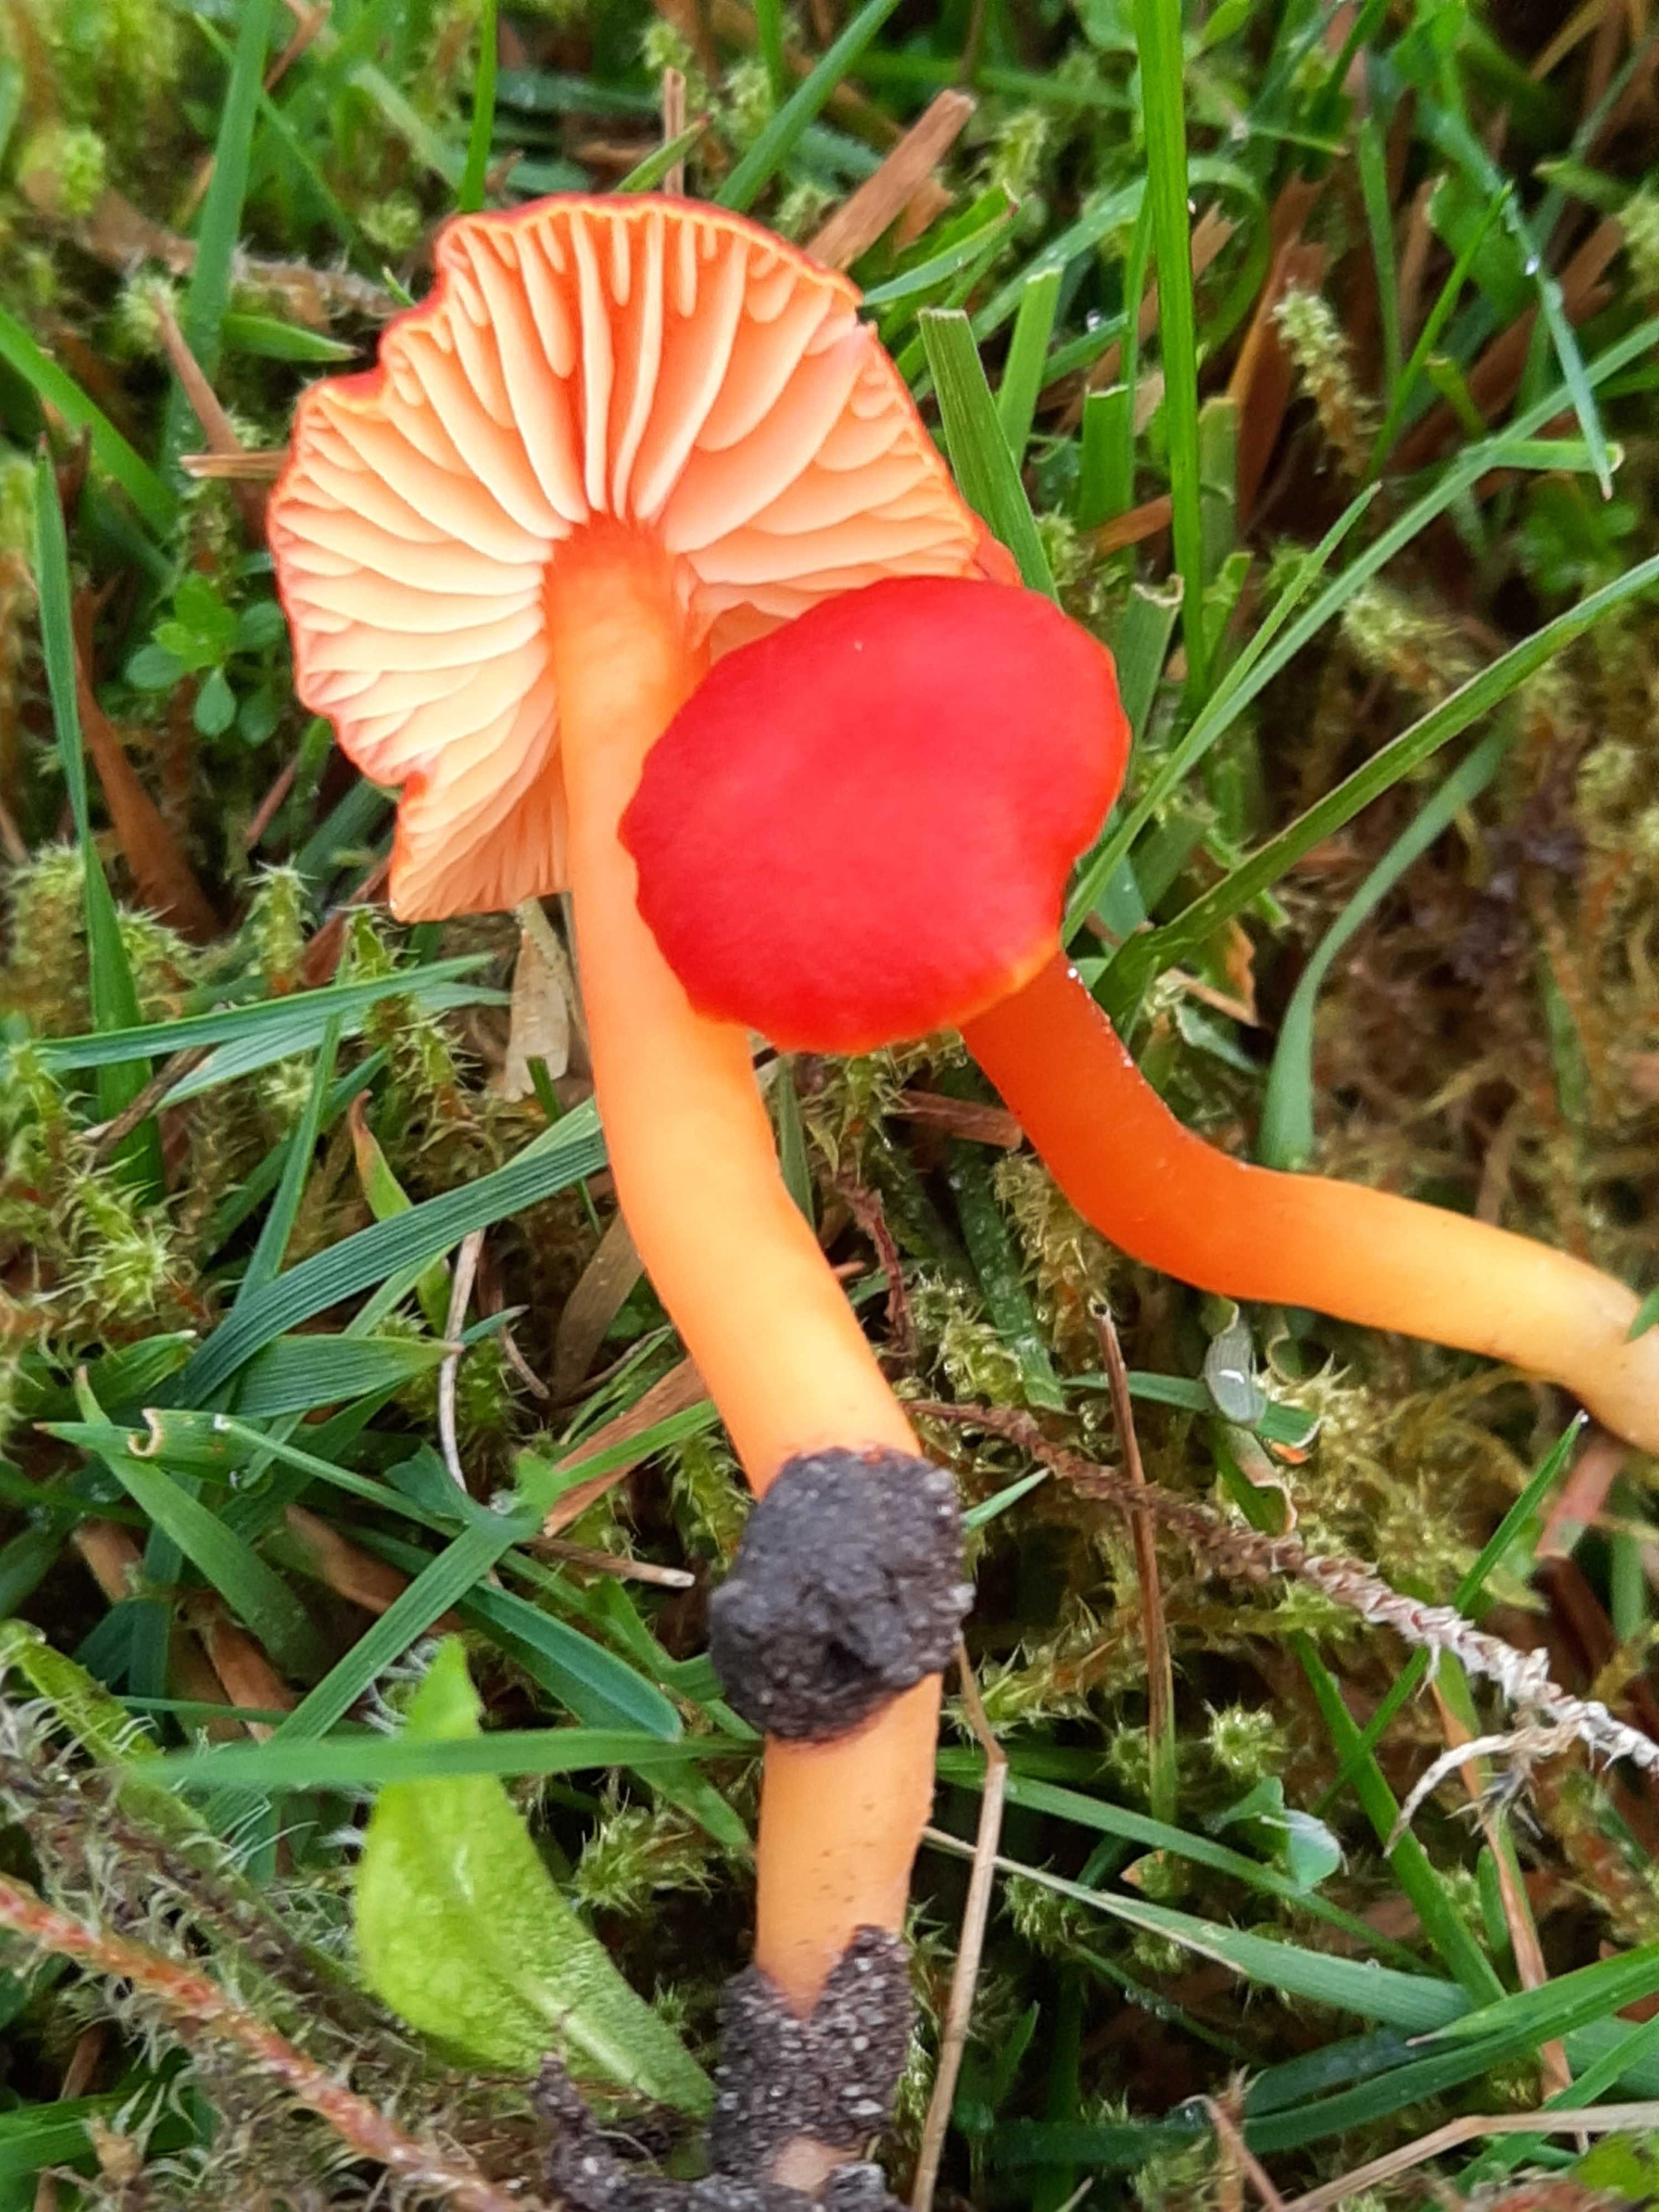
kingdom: Fungi
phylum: Basidiomycota
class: Agaricomycetes
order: Agaricales
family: Hygrophoraceae
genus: Hygrocybe
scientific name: Hygrocybe miniata
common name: mønje-vokshat
